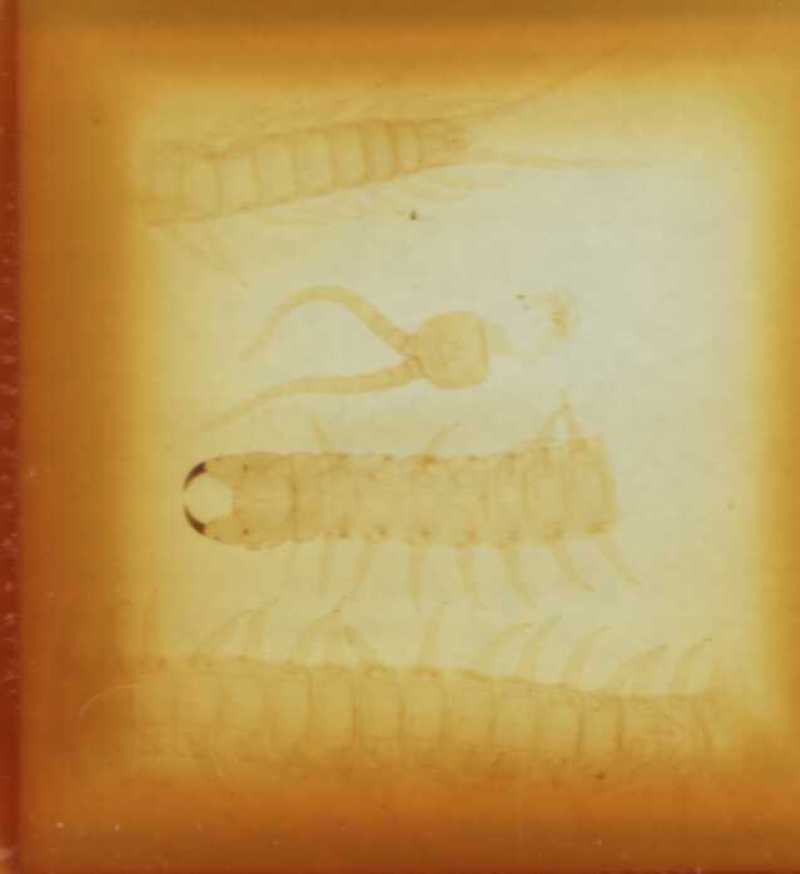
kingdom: Animalia
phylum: Arthropoda
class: Chilopoda
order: Geophilomorpha
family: Geophilidae
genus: Pleurogeophilus
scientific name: Pleurogeophilus mediterraneus
